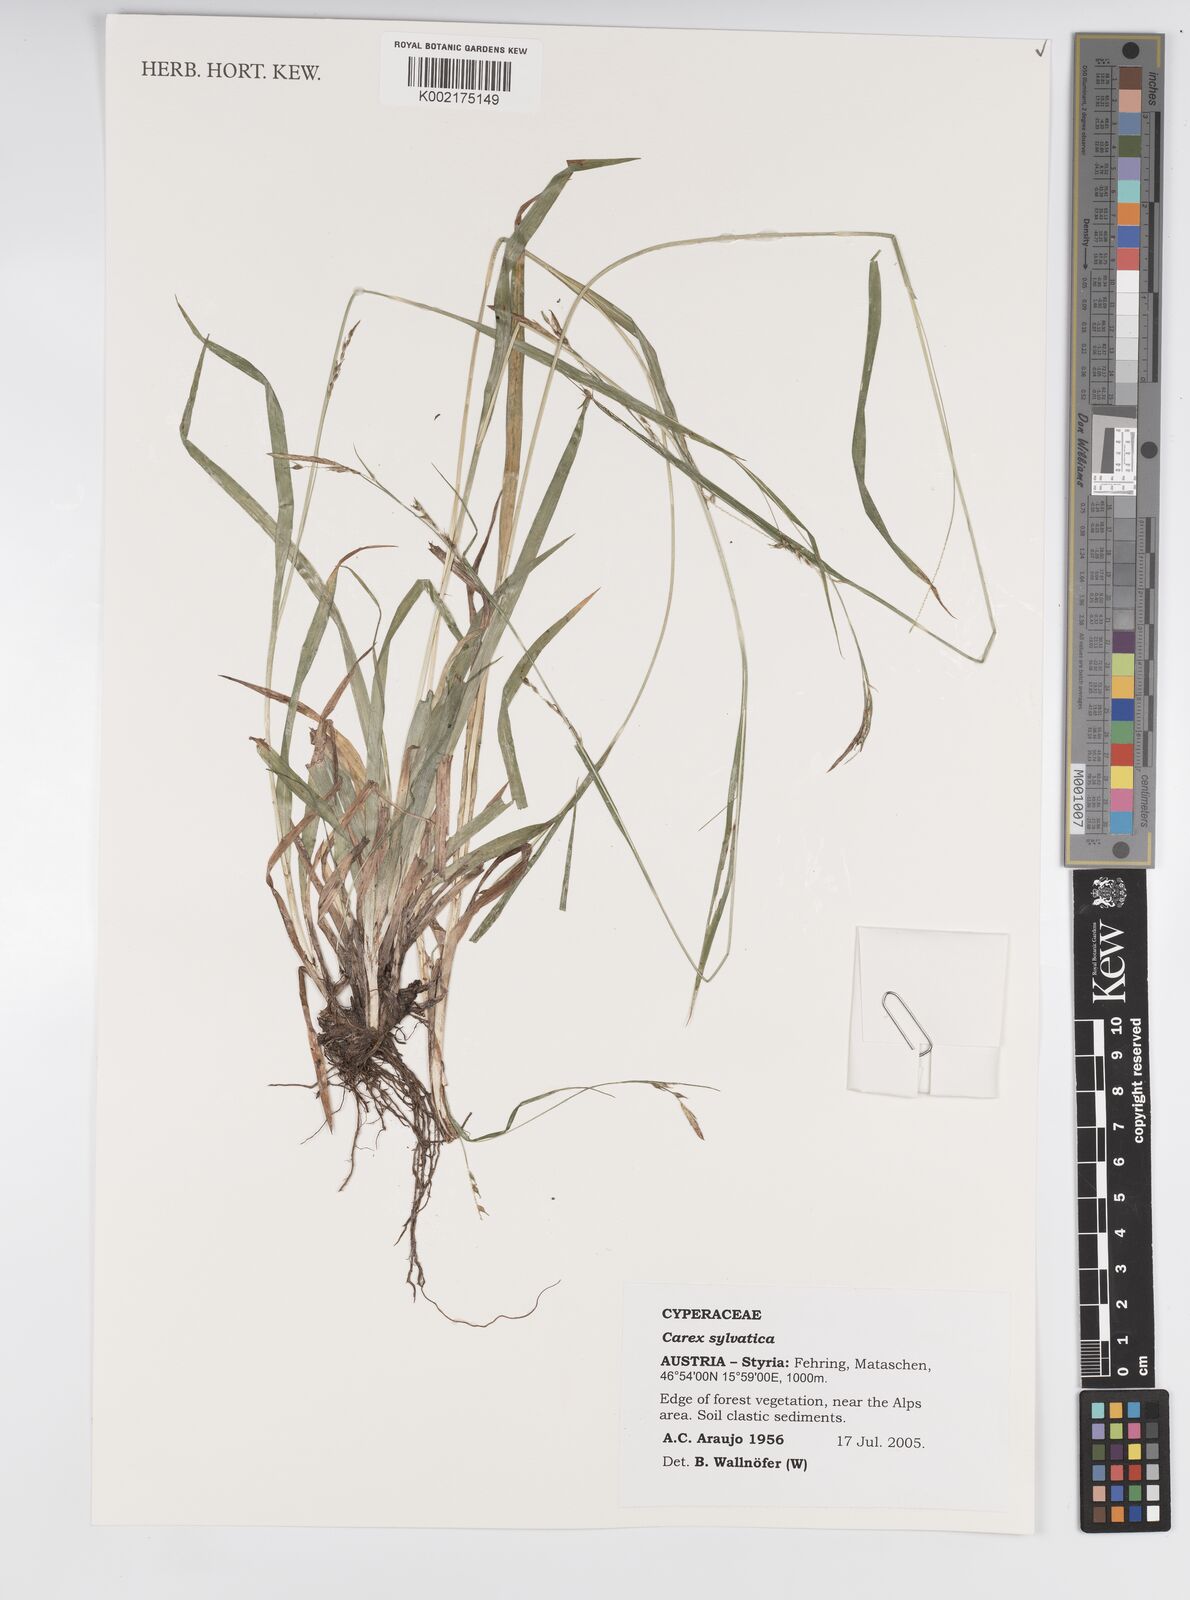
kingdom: Plantae
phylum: Tracheophyta
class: Liliopsida
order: Poales
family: Cyperaceae
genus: Carex
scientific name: Carex sylvatica
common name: Wood-sedge
